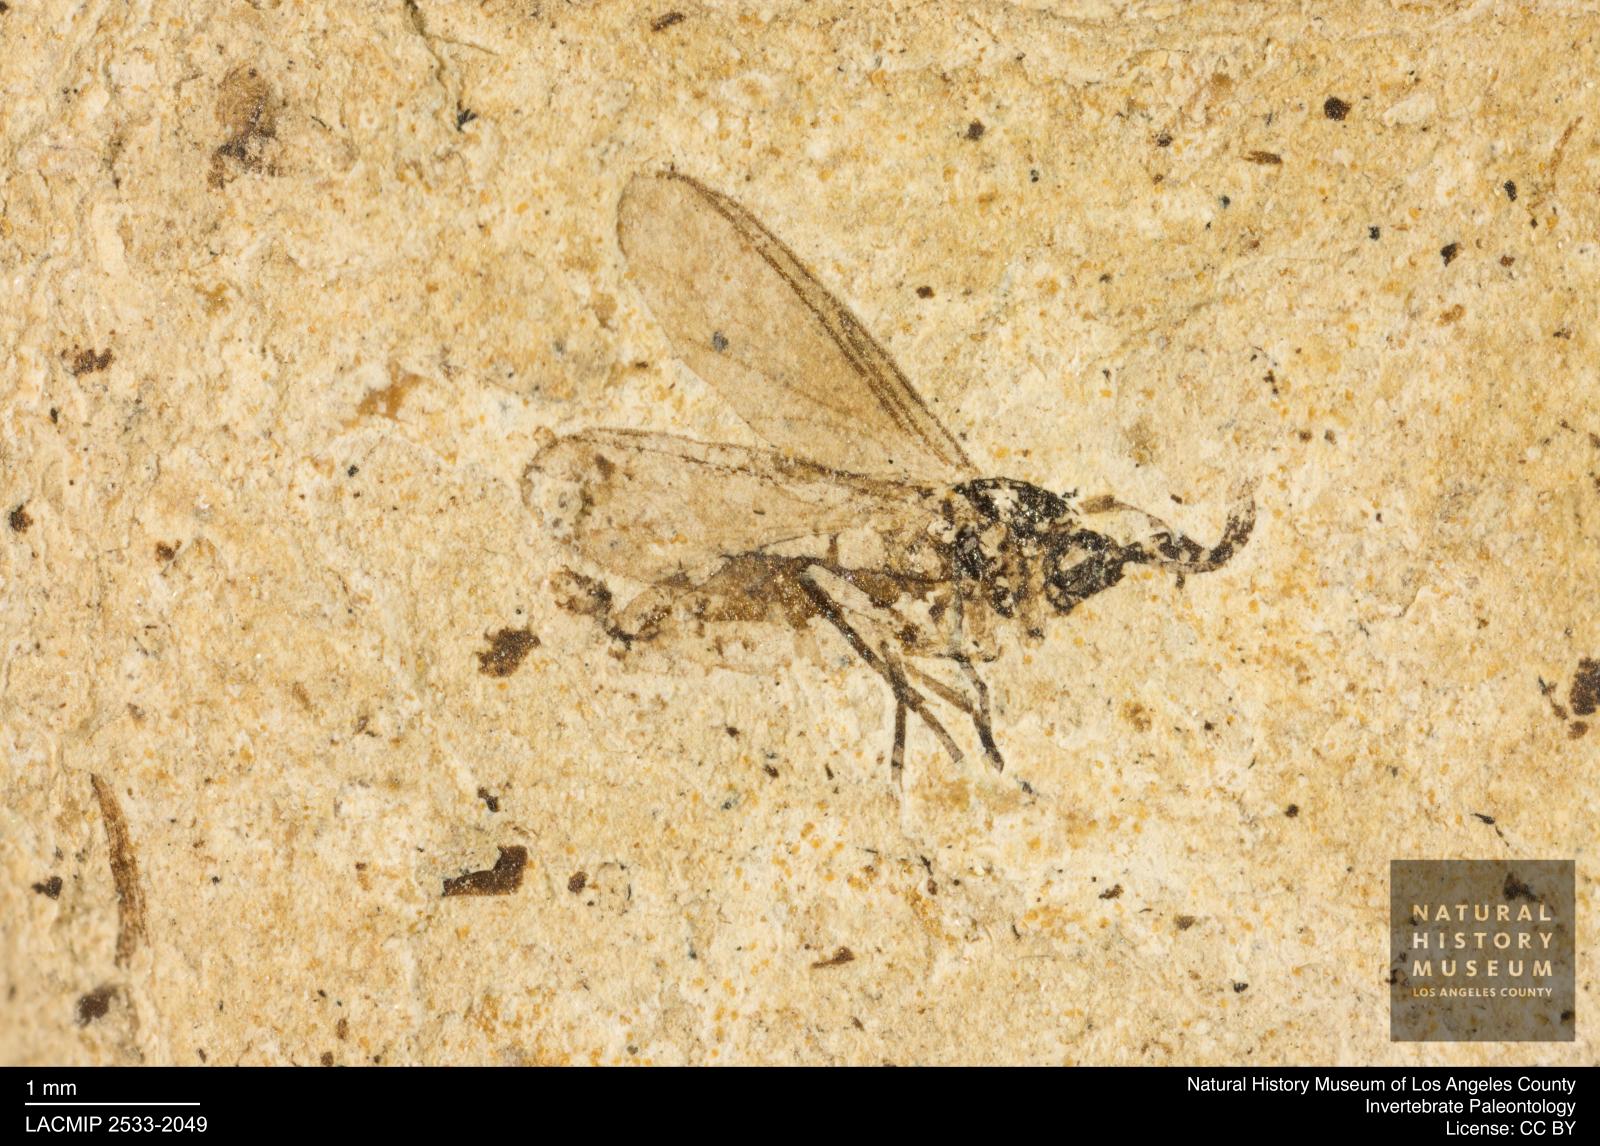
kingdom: Animalia
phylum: Arthropoda
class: Insecta
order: Diptera
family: Sciaridae
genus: Sciara
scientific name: Sciara winnertzii
